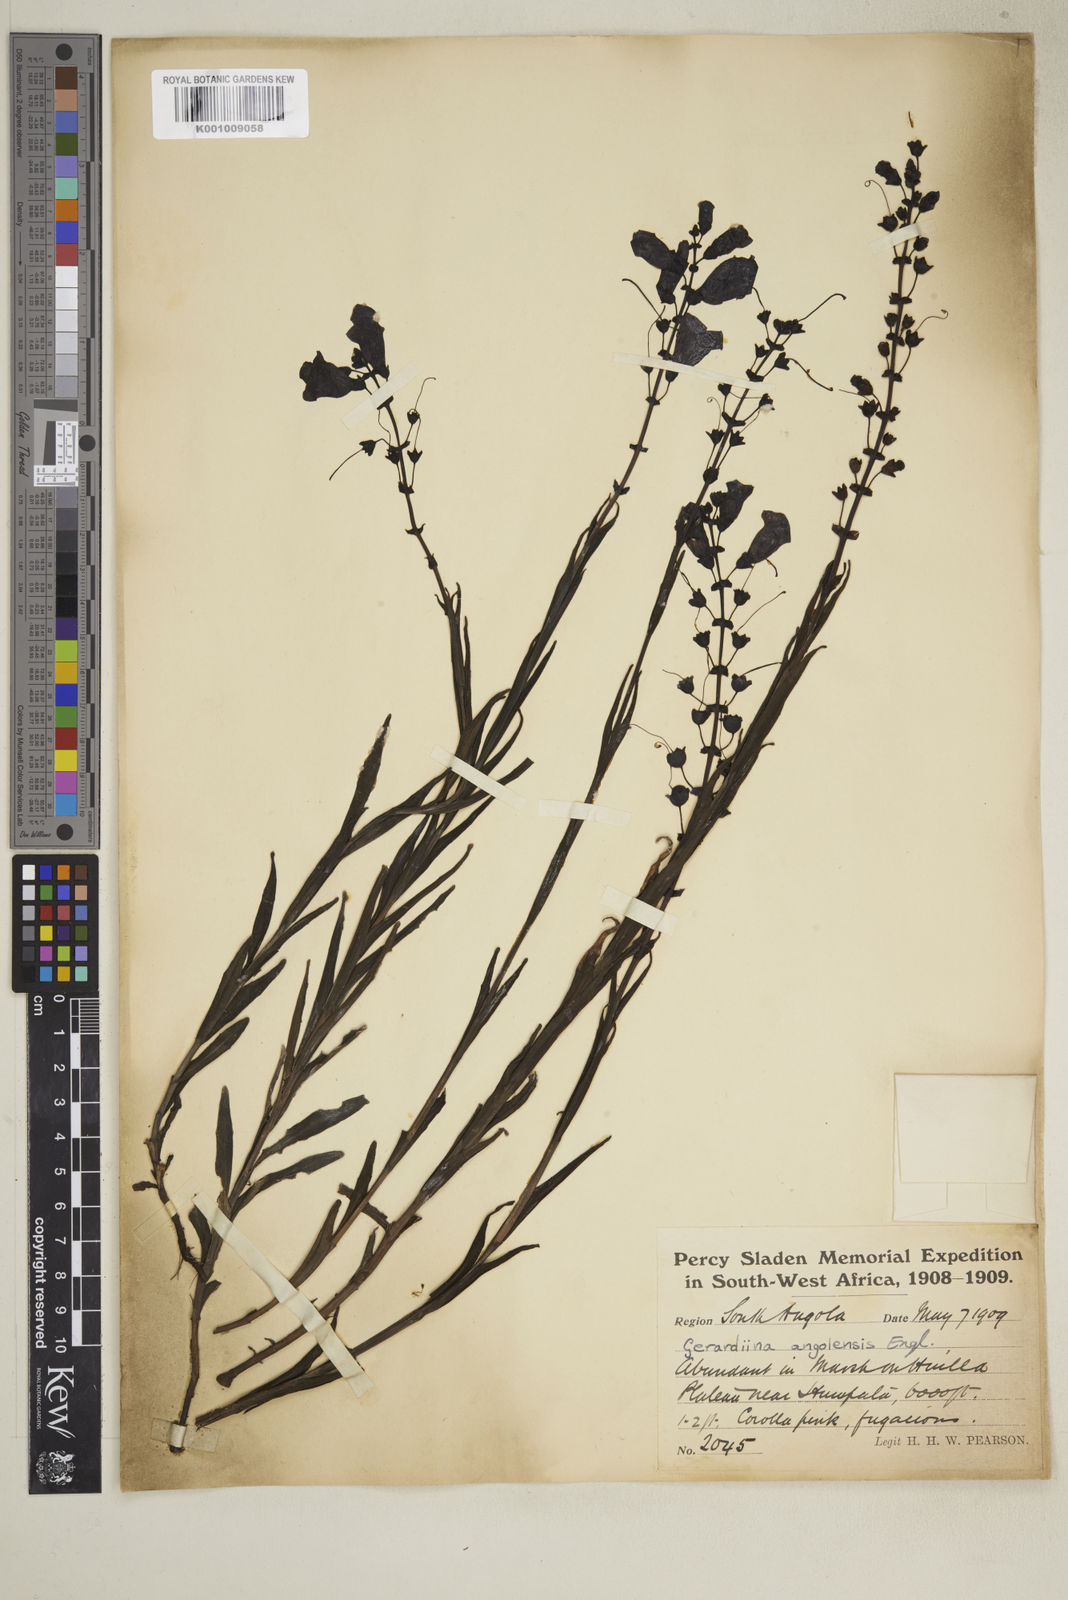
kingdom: Plantae
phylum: Tracheophyta
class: Magnoliopsida
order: Lamiales
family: Orobanchaceae
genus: Gerardiina
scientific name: Gerardiina angolensis
